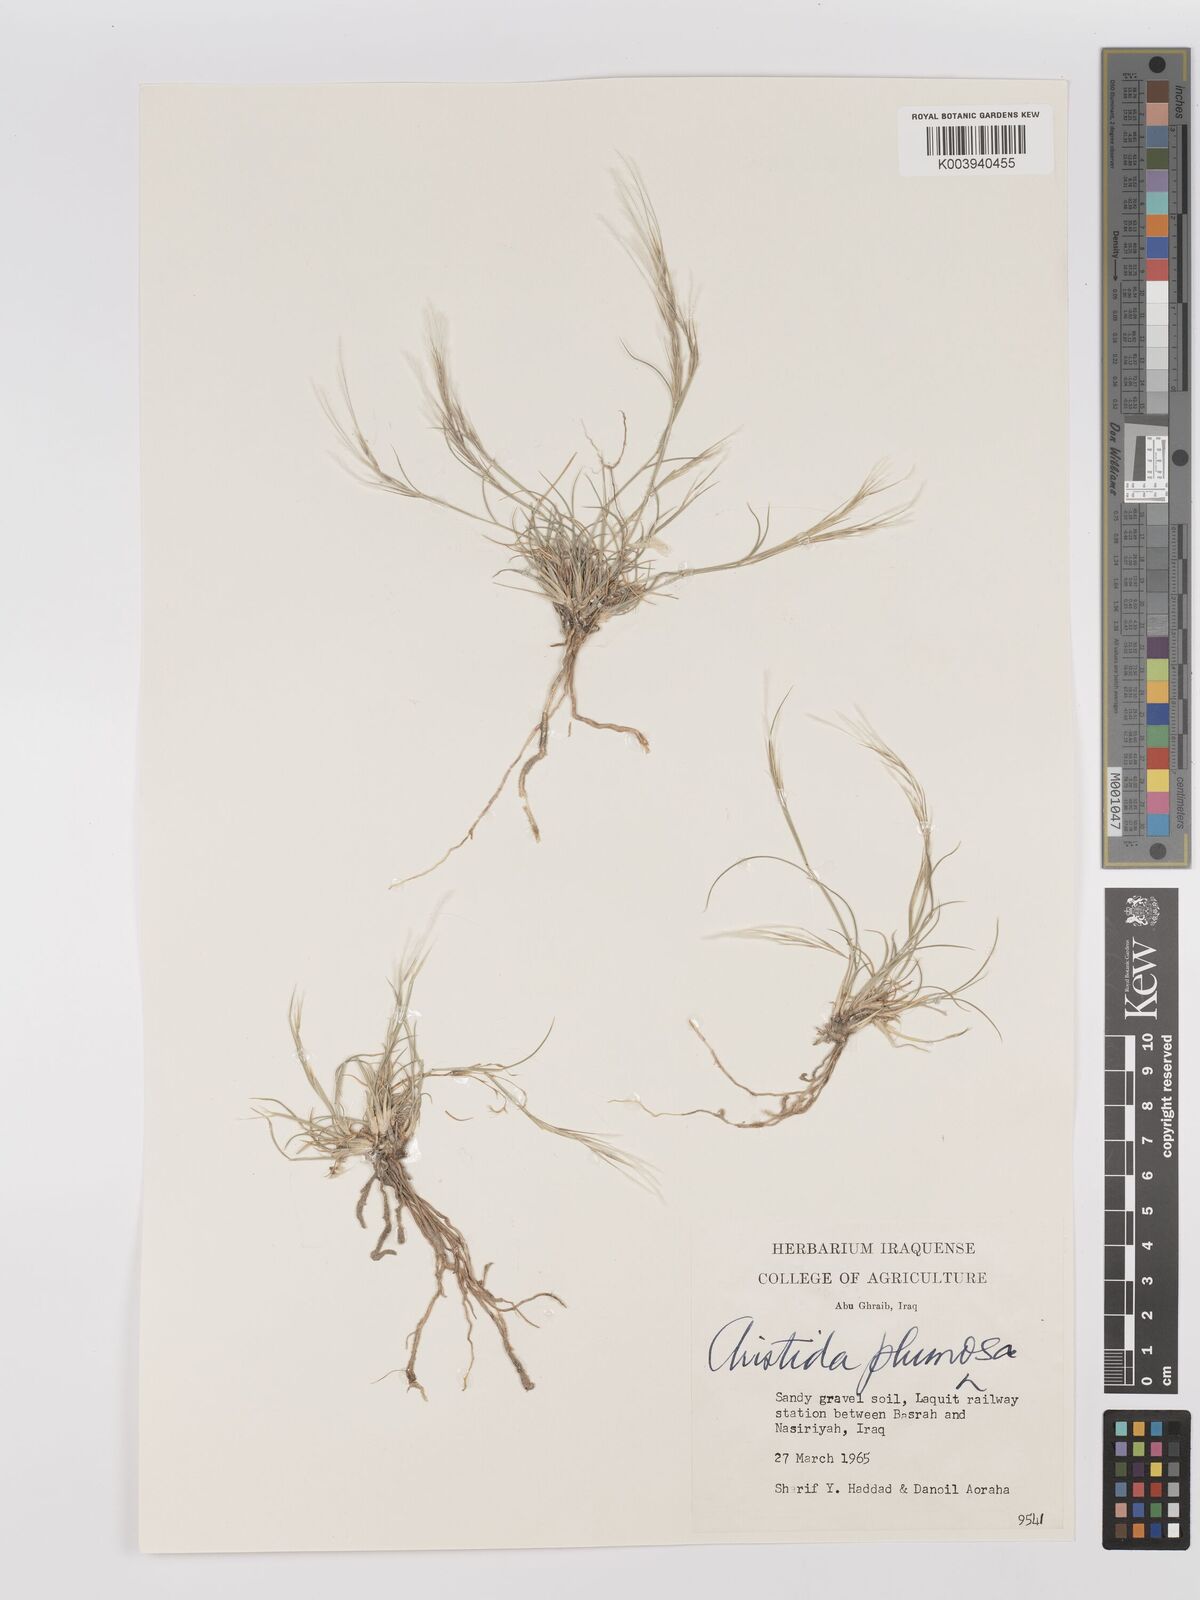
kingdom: Plantae
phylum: Tracheophyta
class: Liliopsida
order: Poales
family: Poaceae
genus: Stipagrostis
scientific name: Stipagrostis plumosa
